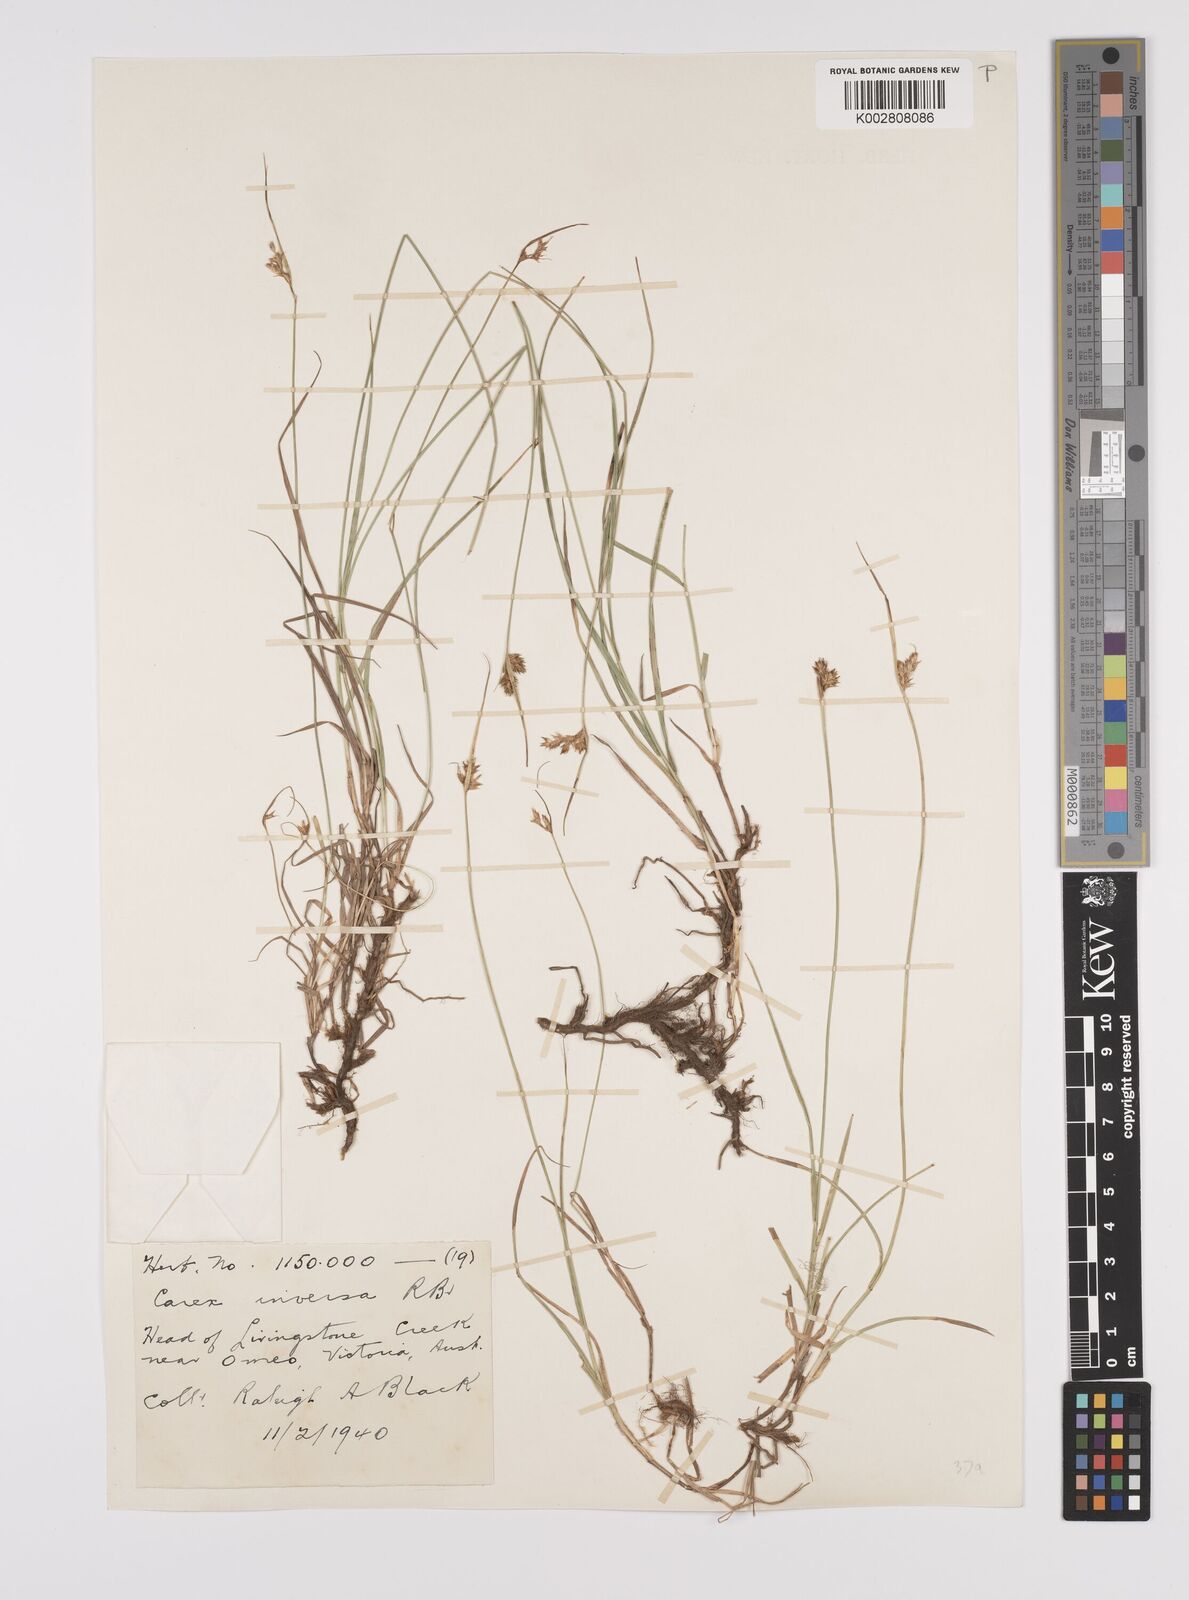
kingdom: Plantae
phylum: Tracheophyta
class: Liliopsida
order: Poales
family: Cyperaceae
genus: Carex
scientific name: Carex inversa
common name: Knob sedge
